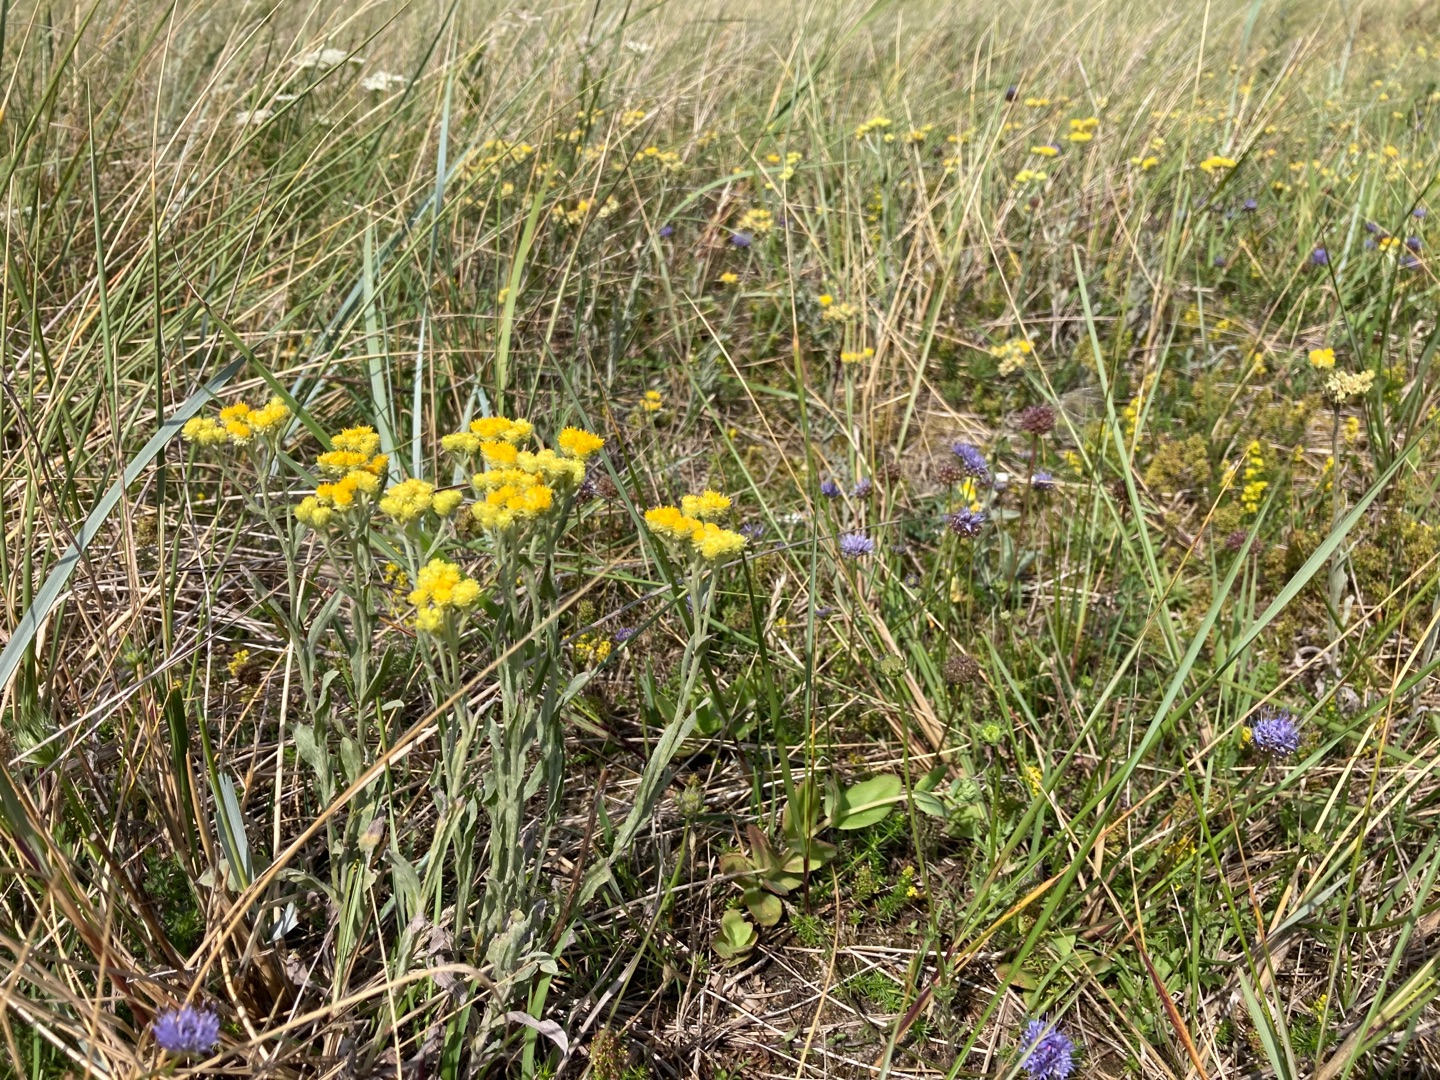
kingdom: Plantae
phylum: Tracheophyta
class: Magnoliopsida
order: Asterales
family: Asteraceae
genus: Helichrysum
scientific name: Helichrysum arenarium
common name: Gul evighedsblomst
